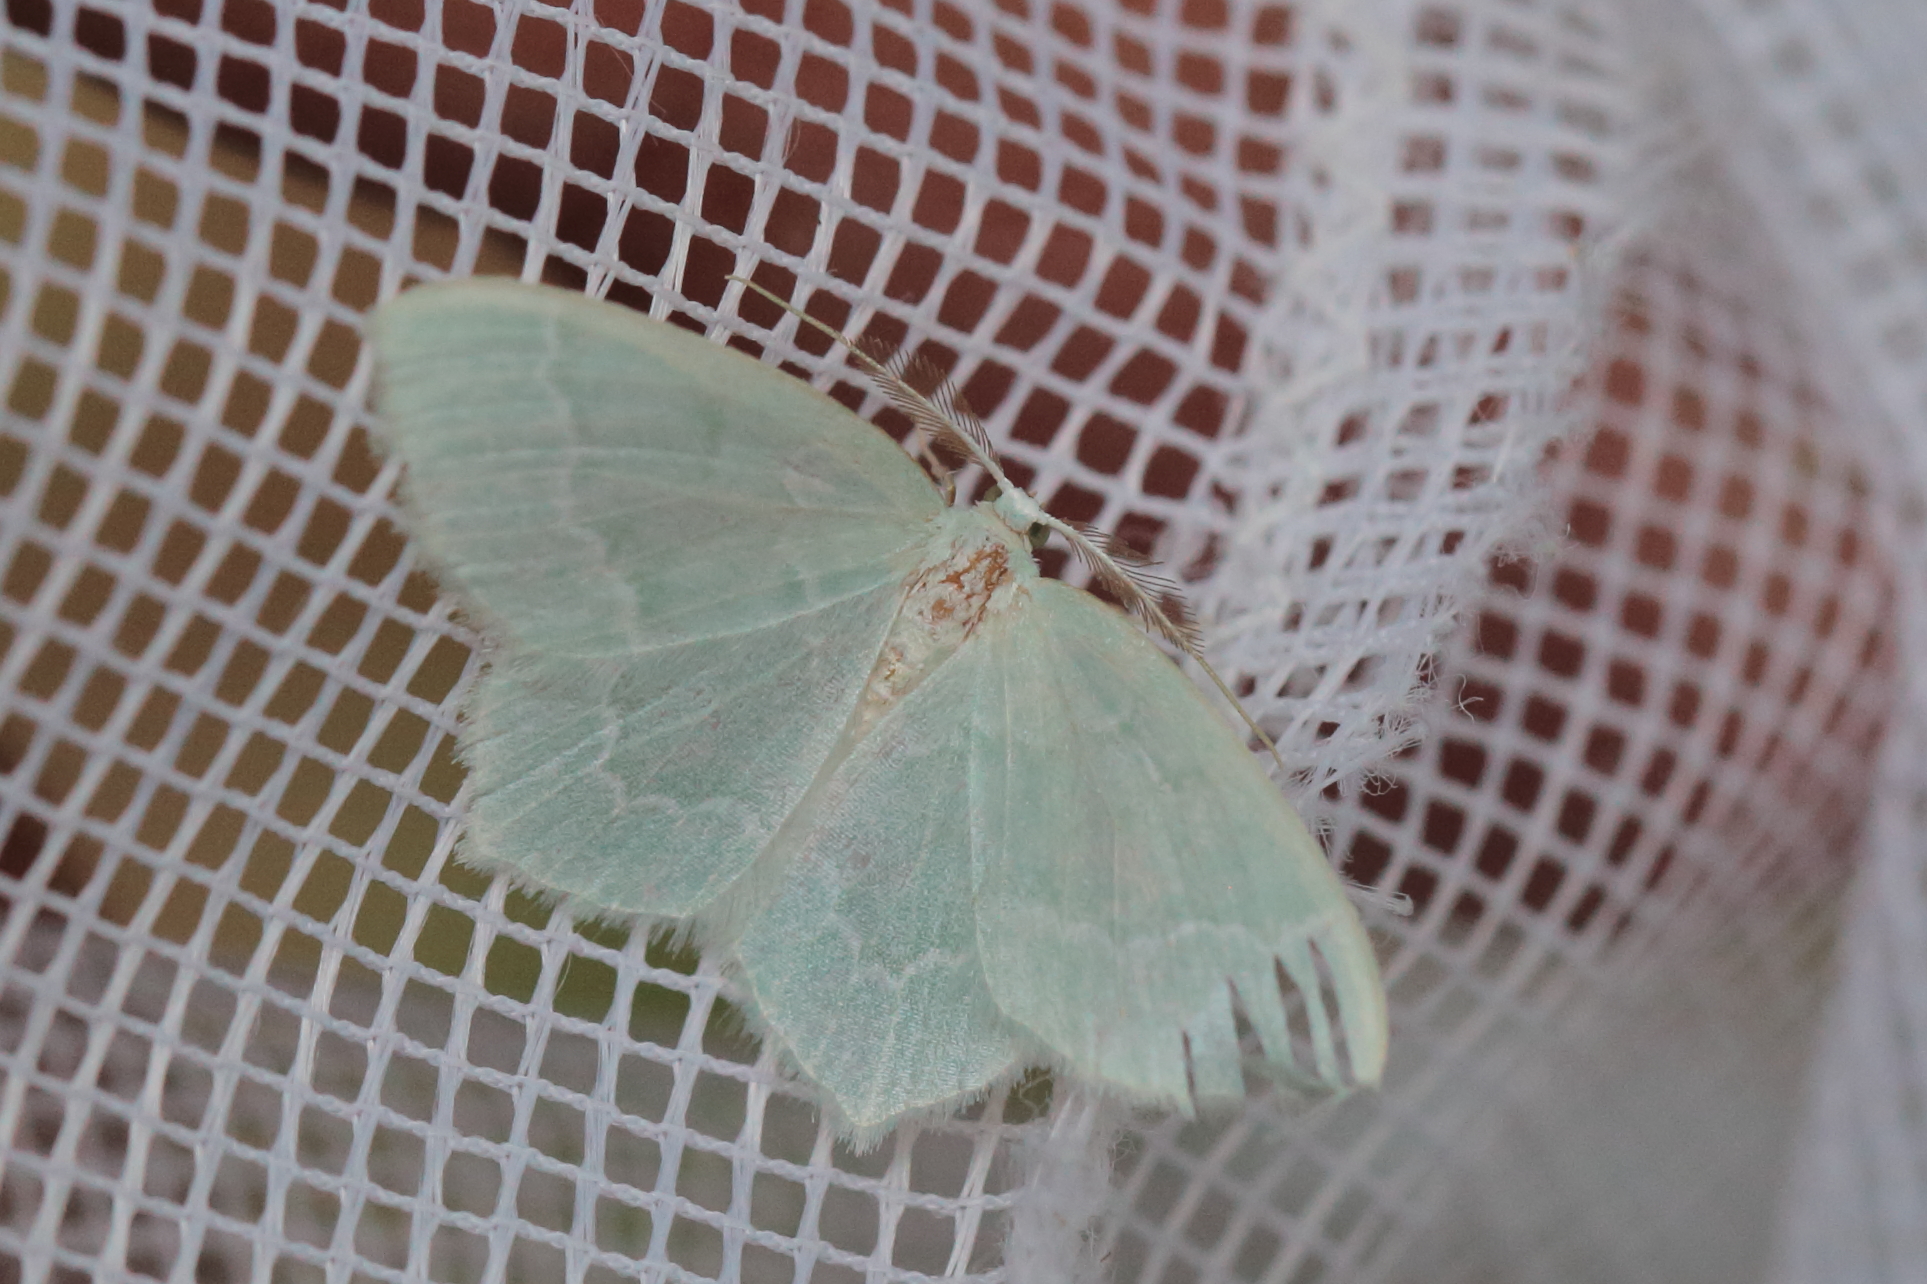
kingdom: Animalia
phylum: Arthropoda
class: Insecta
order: Lepidoptera
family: Geometridae
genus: Jodis
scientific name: Jodis putata
